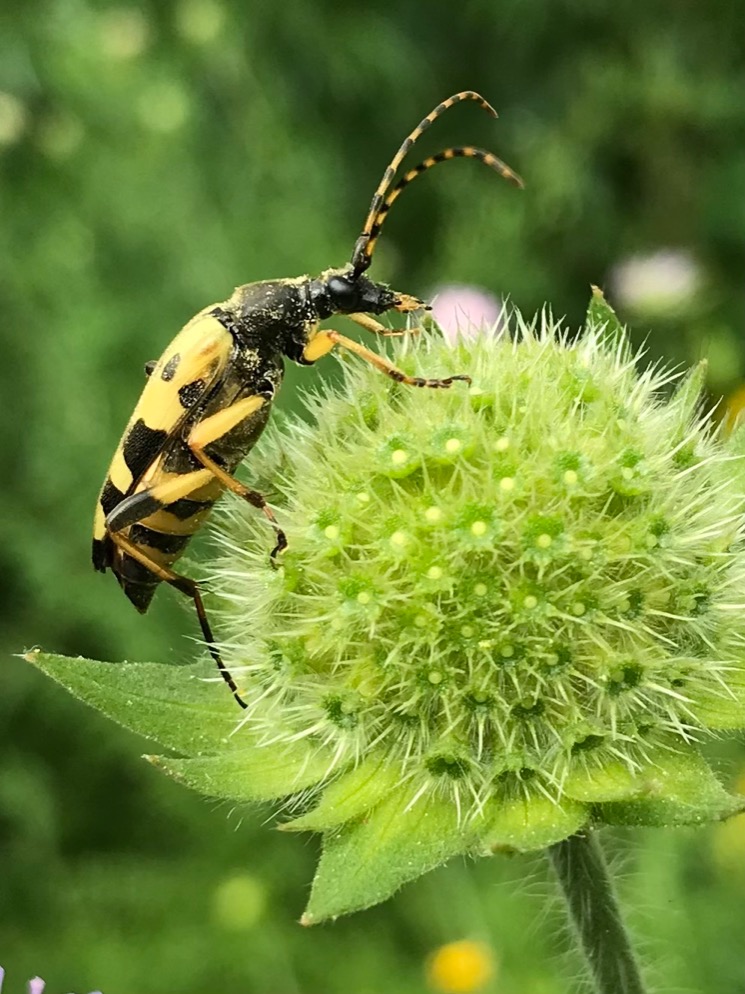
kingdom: Animalia
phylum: Arthropoda
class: Insecta
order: Coleoptera
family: Cerambycidae
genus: Rutpela
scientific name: Rutpela maculata
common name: Sydlig blomsterbuk
